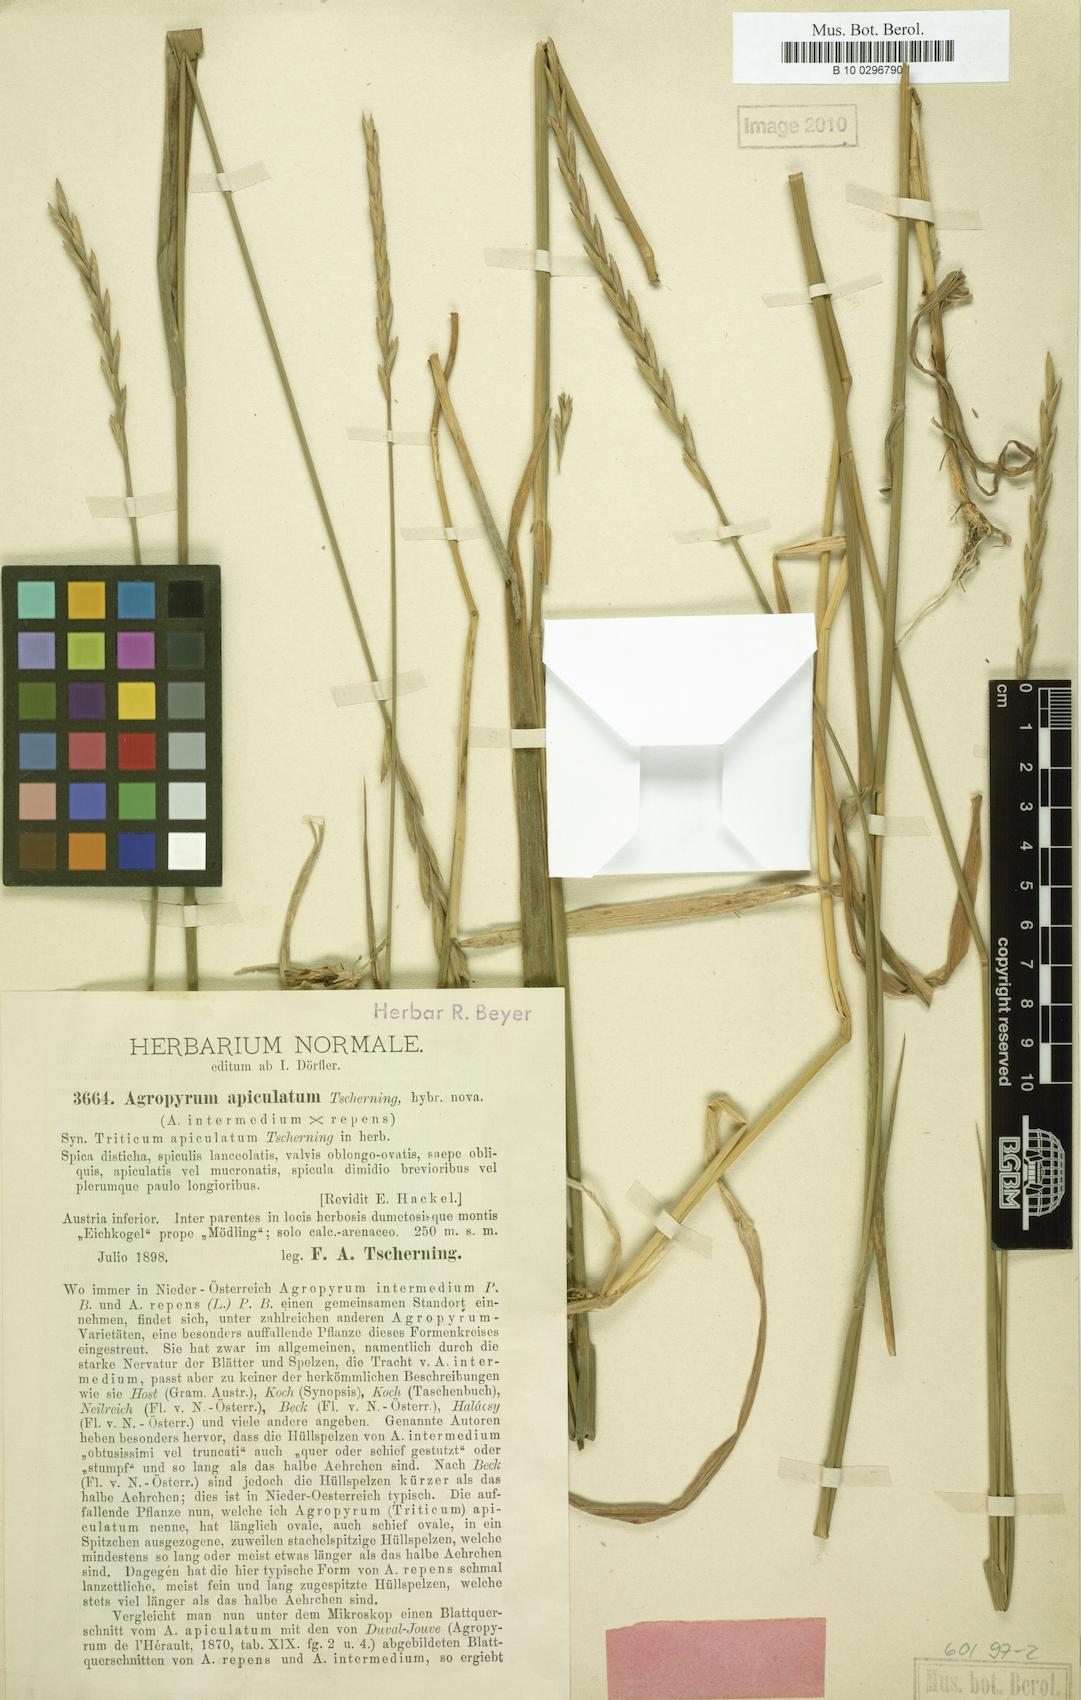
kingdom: Plantae
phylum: Tracheophyta
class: Liliopsida
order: Poales
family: Poaceae
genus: Elymus
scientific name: Elymus apiculatus
